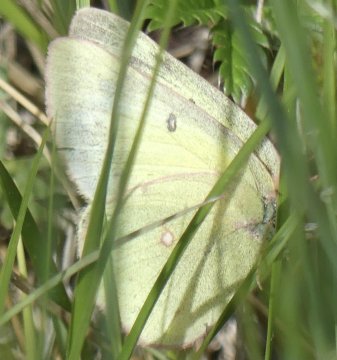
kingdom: Animalia
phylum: Arthropoda
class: Insecta
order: Lepidoptera
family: Pieridae
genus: Colias
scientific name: Colias philodice
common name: Clouded Sulphur
